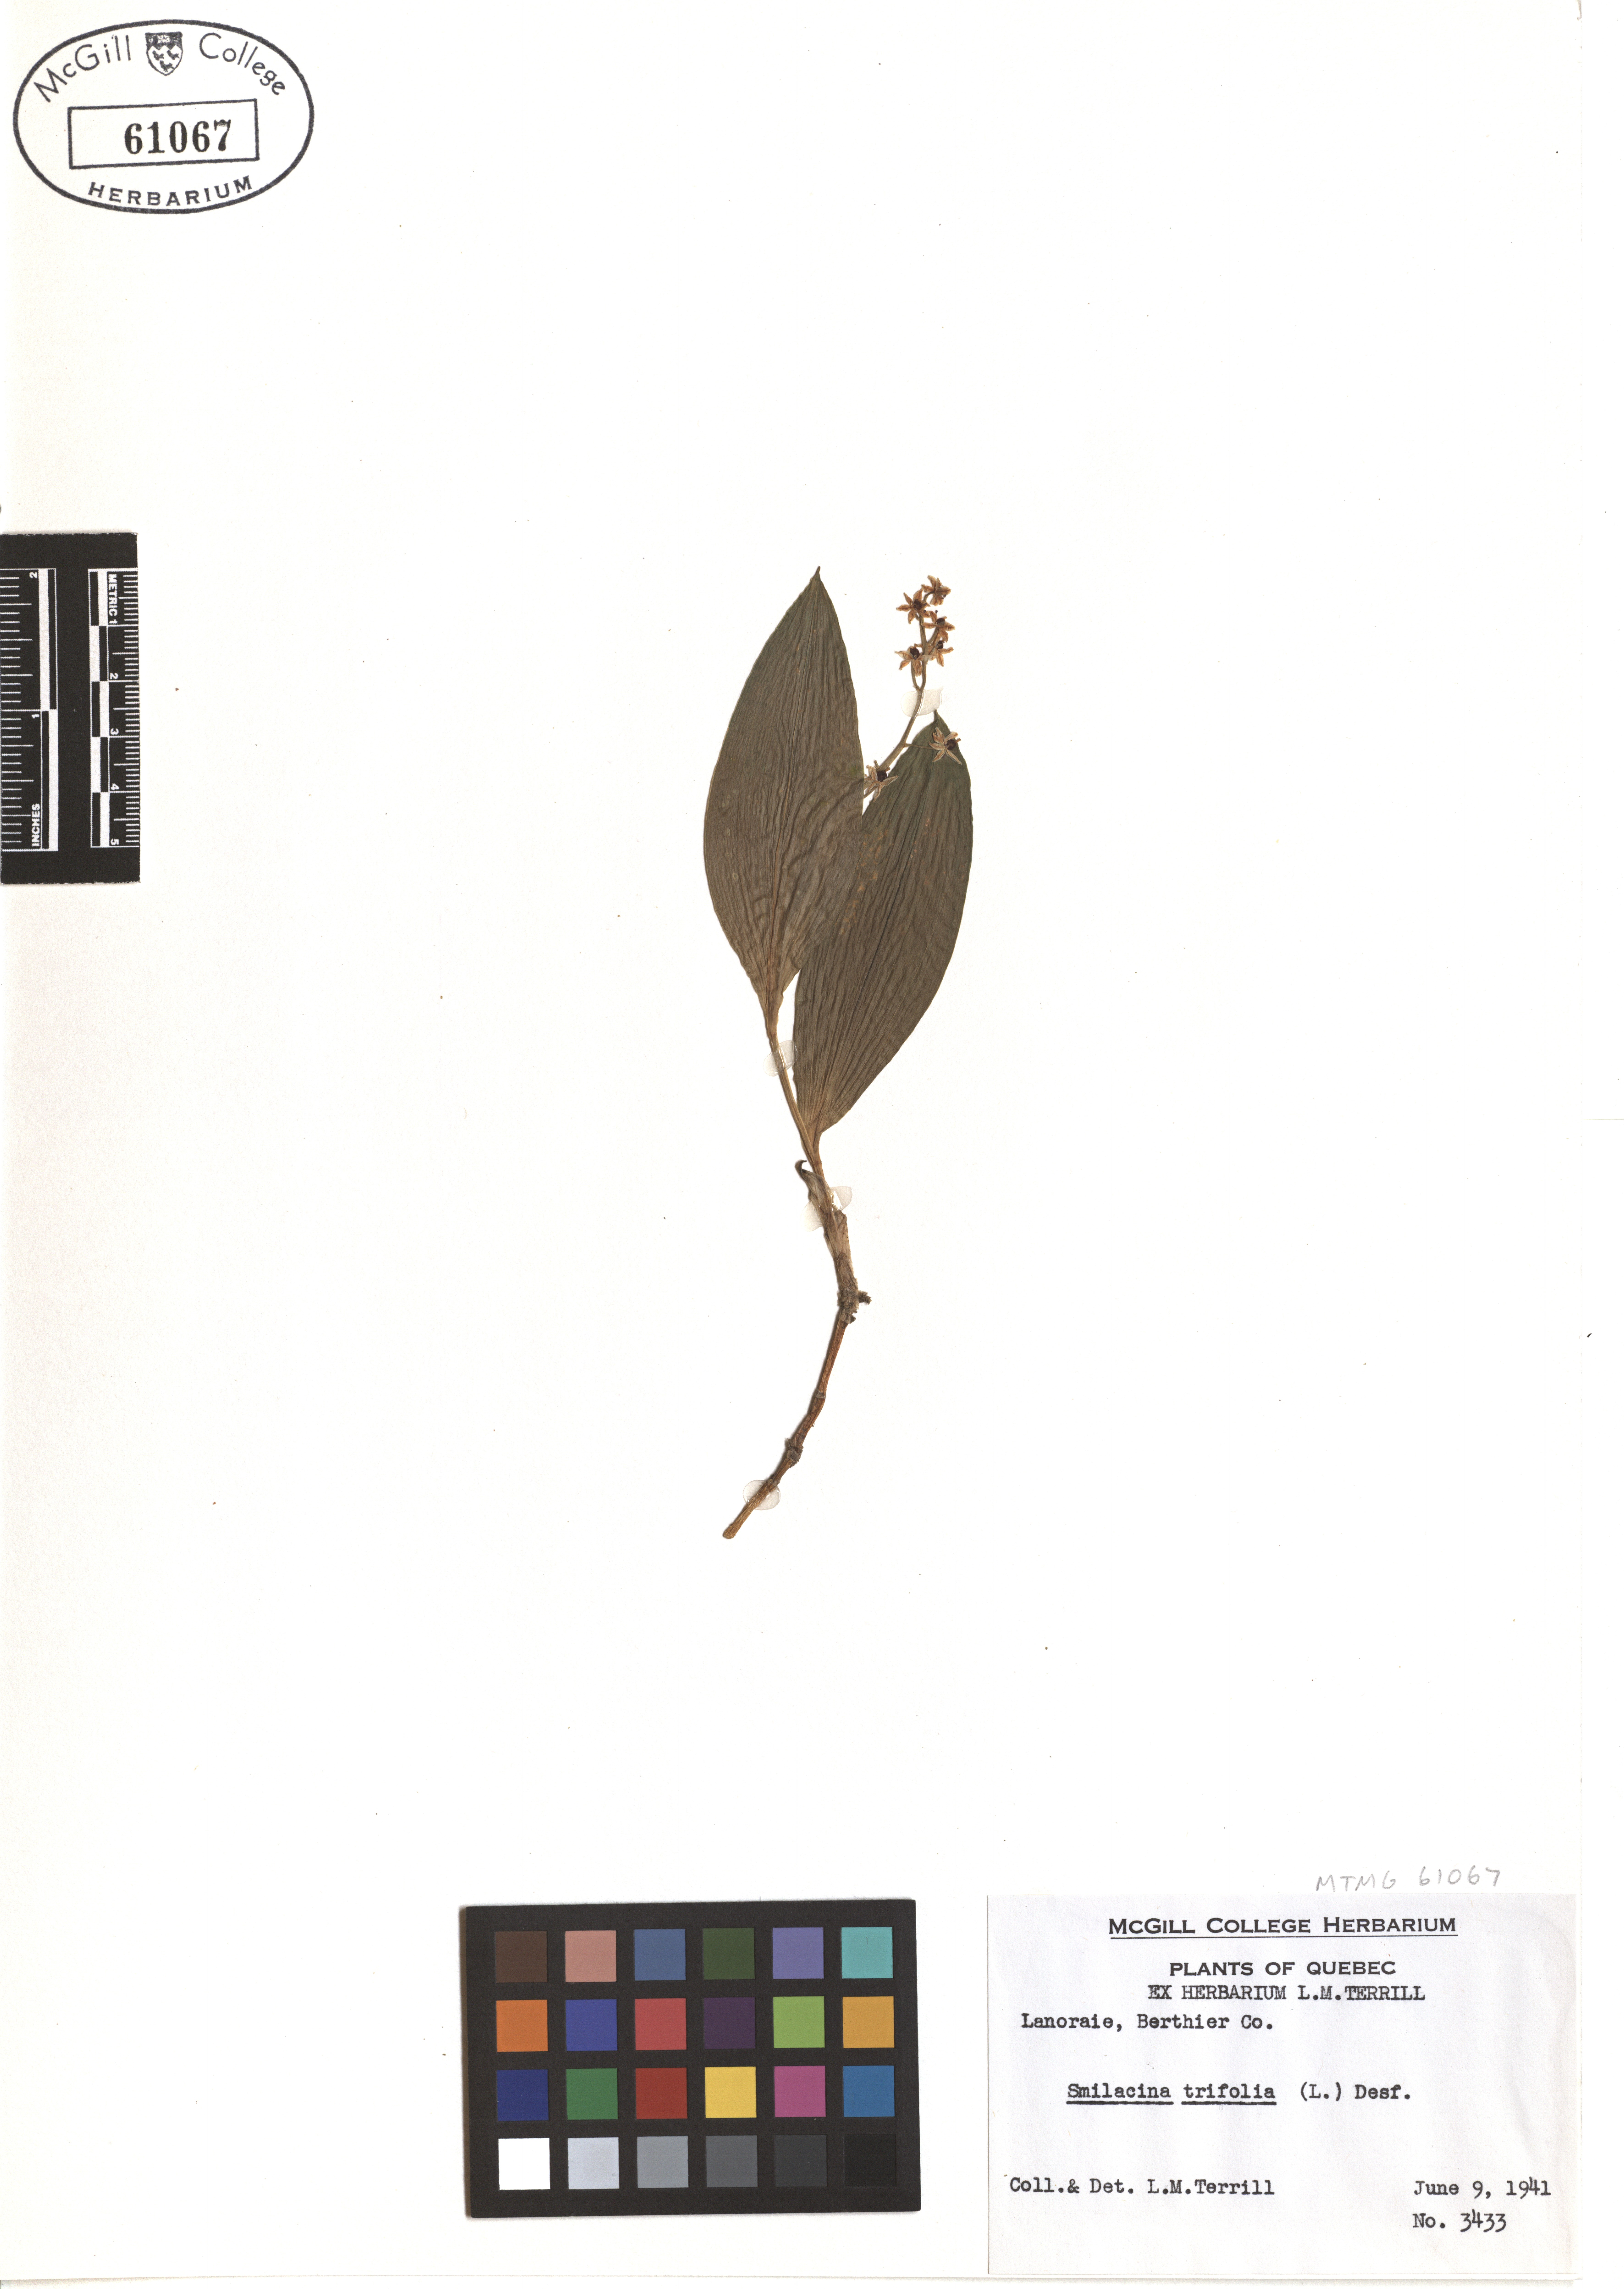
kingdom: Plantae
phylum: Tracheophyta
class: Liliopsida
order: Asparagales
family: Asparagaceae
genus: Maianthemum
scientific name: Maianthemum trifolium
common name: Swamp false solomon's seal
